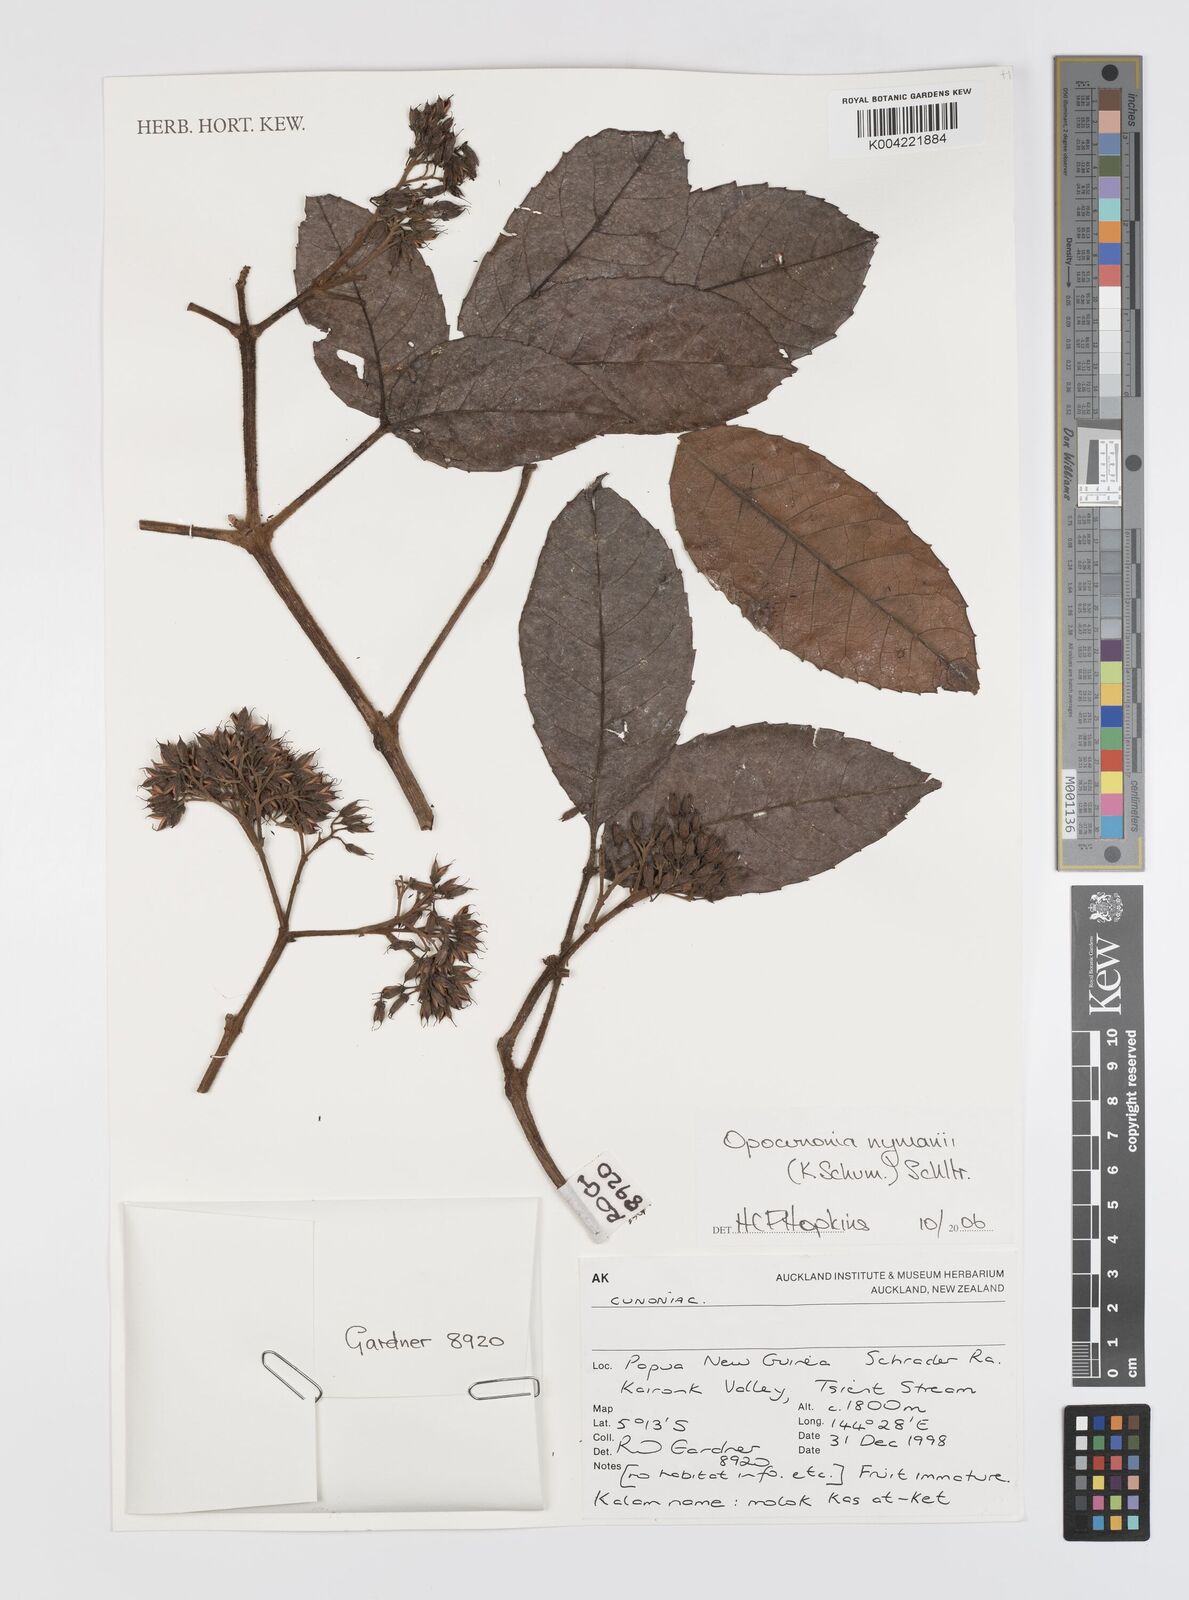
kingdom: Plantae
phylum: Tracheophyta
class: Magnoliopsida
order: Oxalidales
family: Cunoniaceae
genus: Opocunonia
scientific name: Opocunonia nymanii
